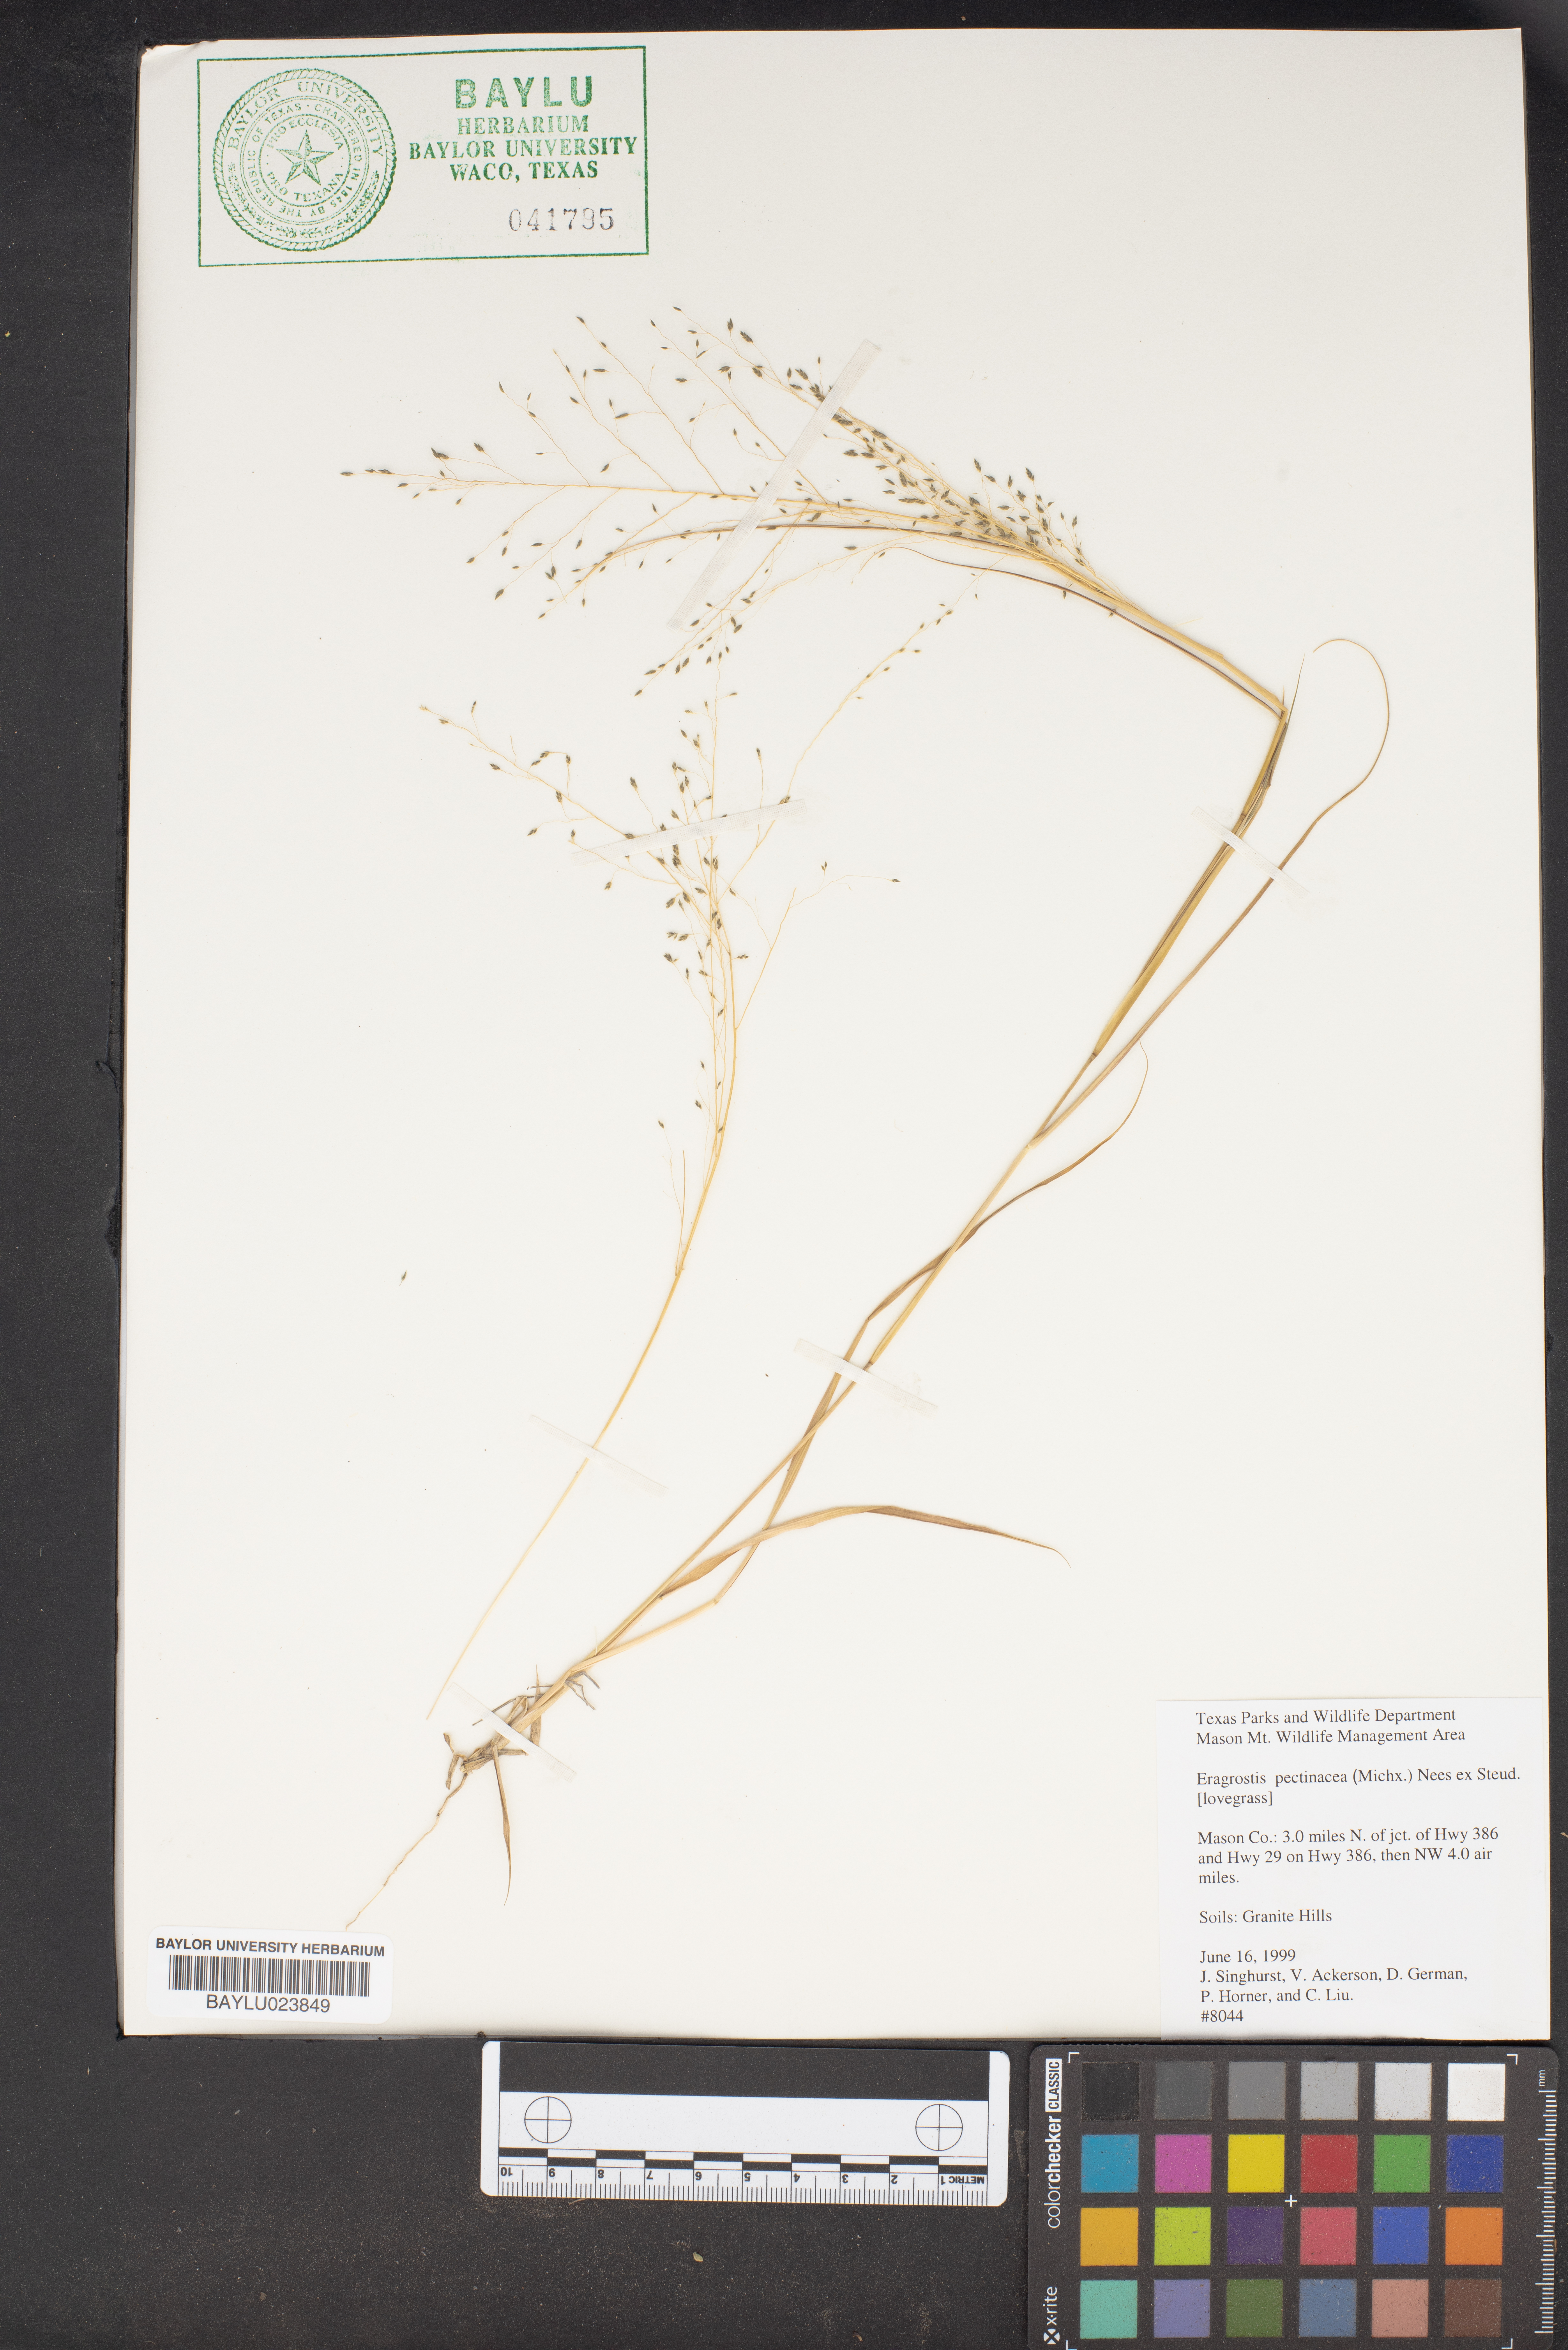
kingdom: Plantae
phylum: Tracheophyta
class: Liliopsida
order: Poales
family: Poaceae
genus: Eragrostis
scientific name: Eragrostis pectinacea
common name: Tufted lovegrass
